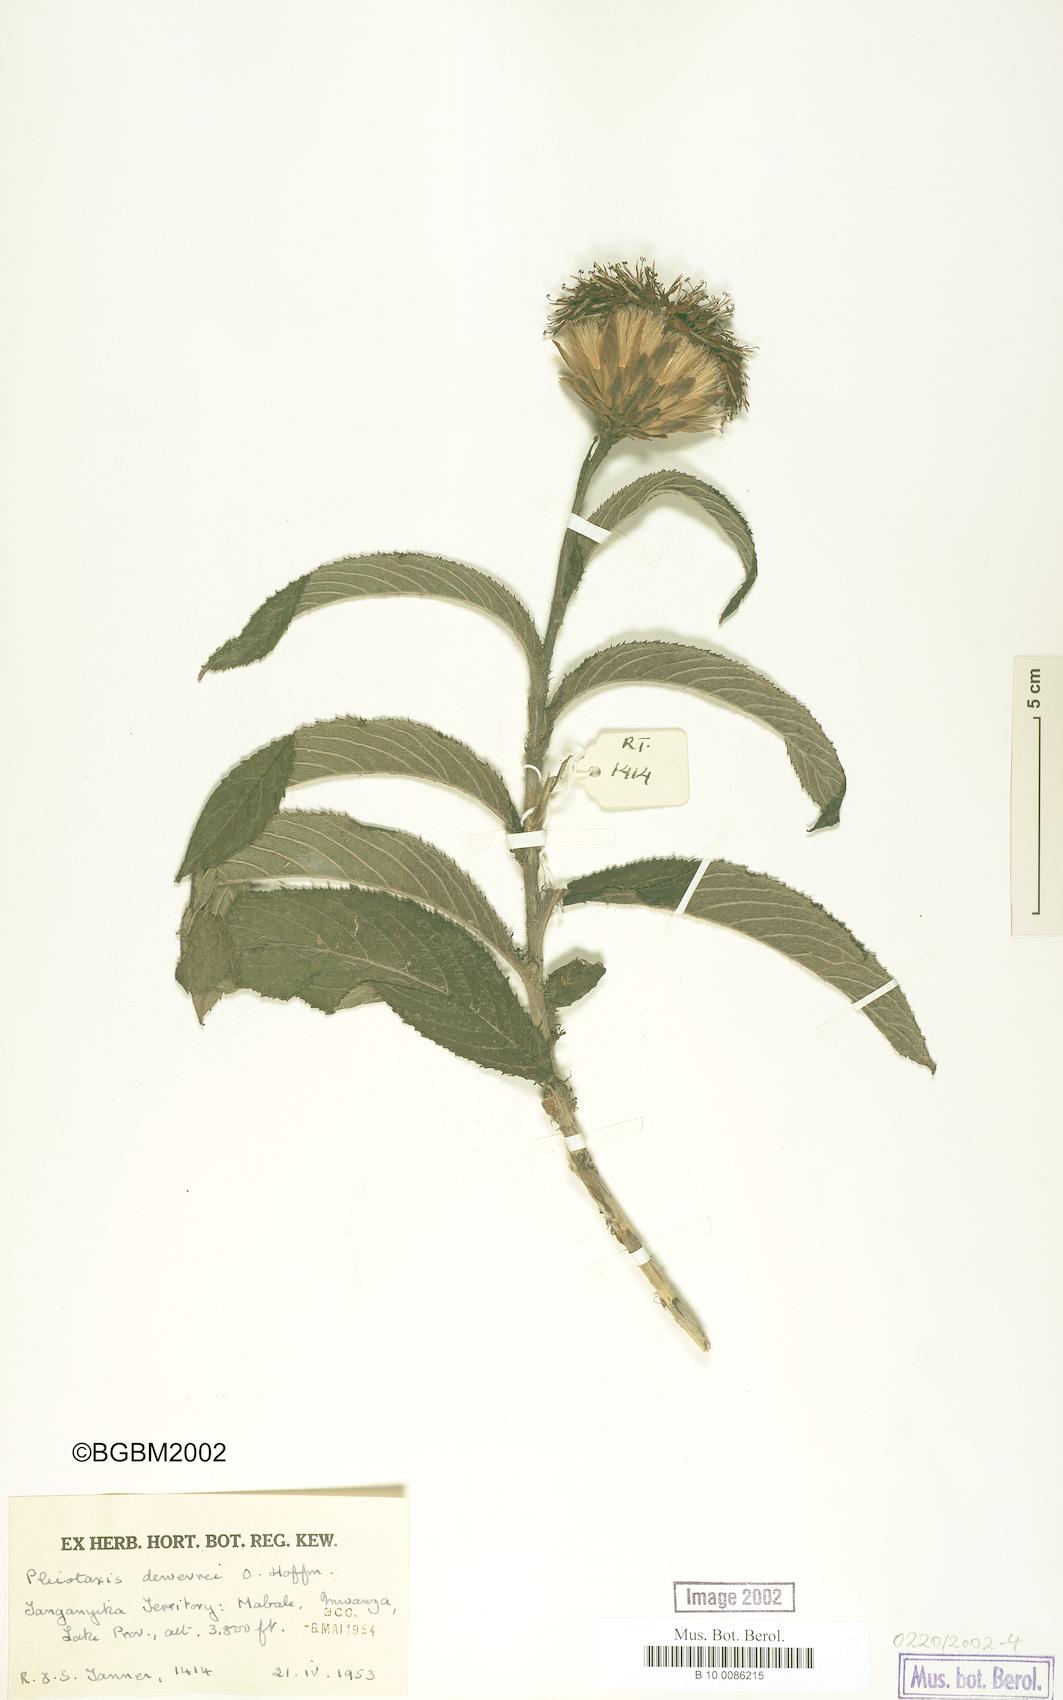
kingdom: Plantae
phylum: Tracheophyta
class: Magnoliopsida
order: Asterales
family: Asteraceae
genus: Pleiotaxis
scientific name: Pleiotaxis dewevrei
